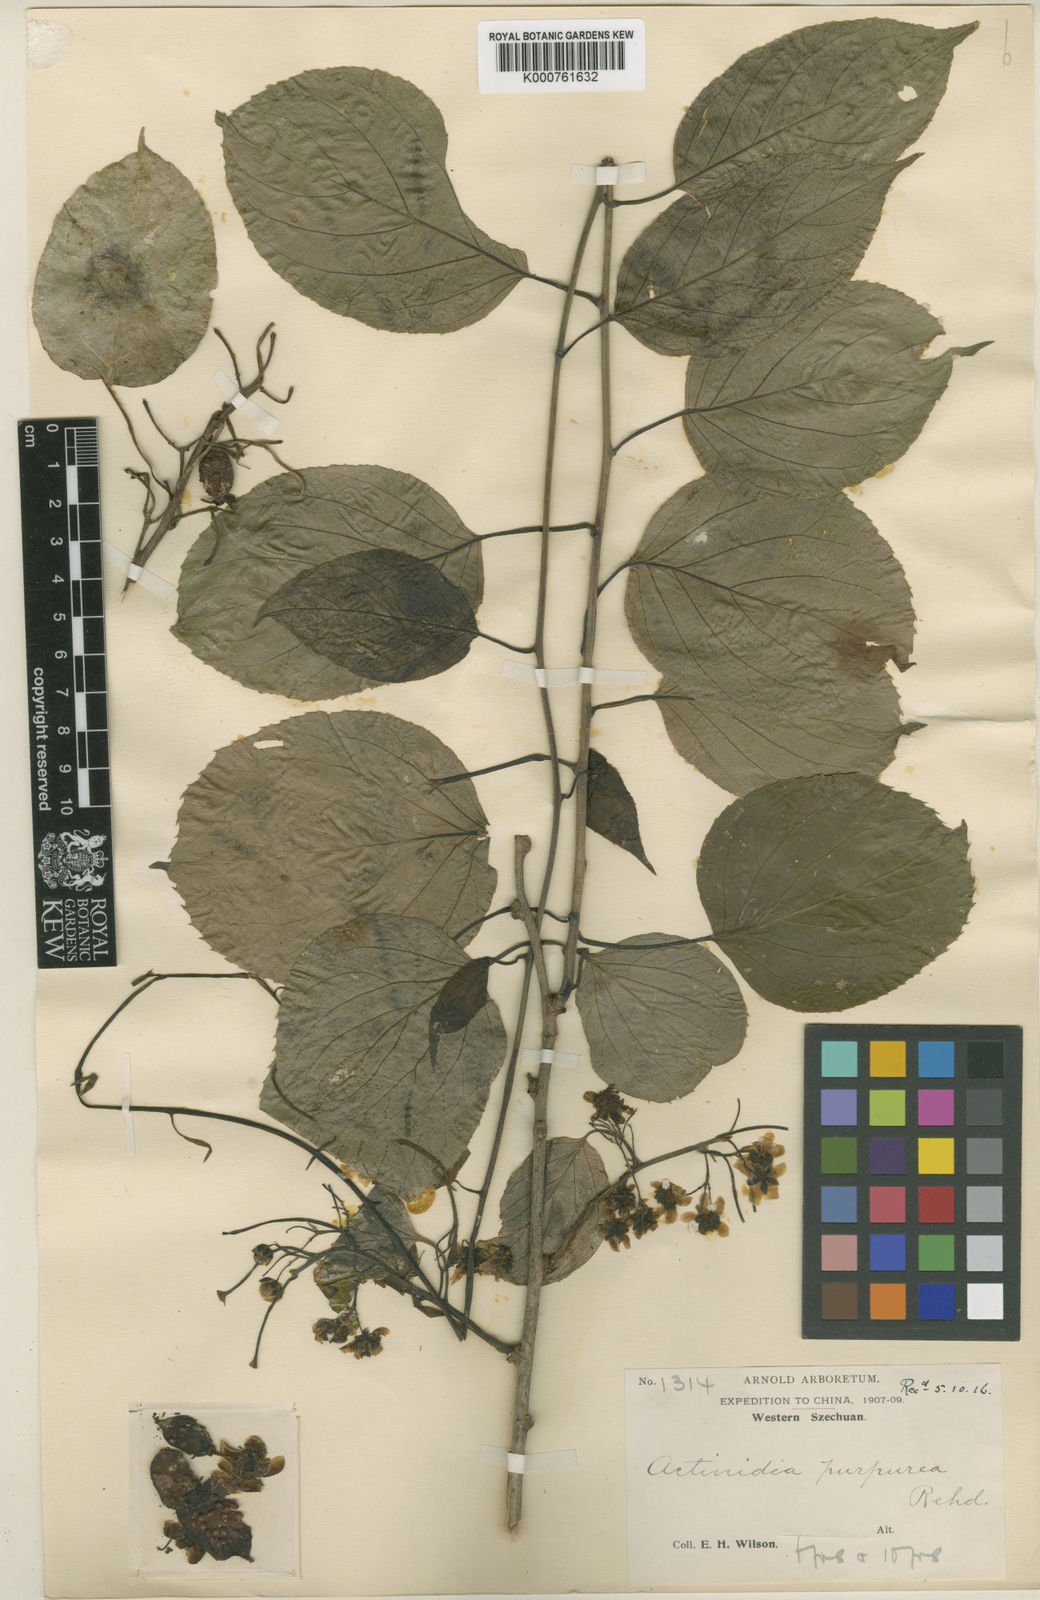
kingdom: Plantae
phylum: Tracheophyta
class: Magnoliopsida
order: Ericales
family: Actinidiaceae
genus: Actinidia
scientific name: Actinidia arguta
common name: Tara vine
